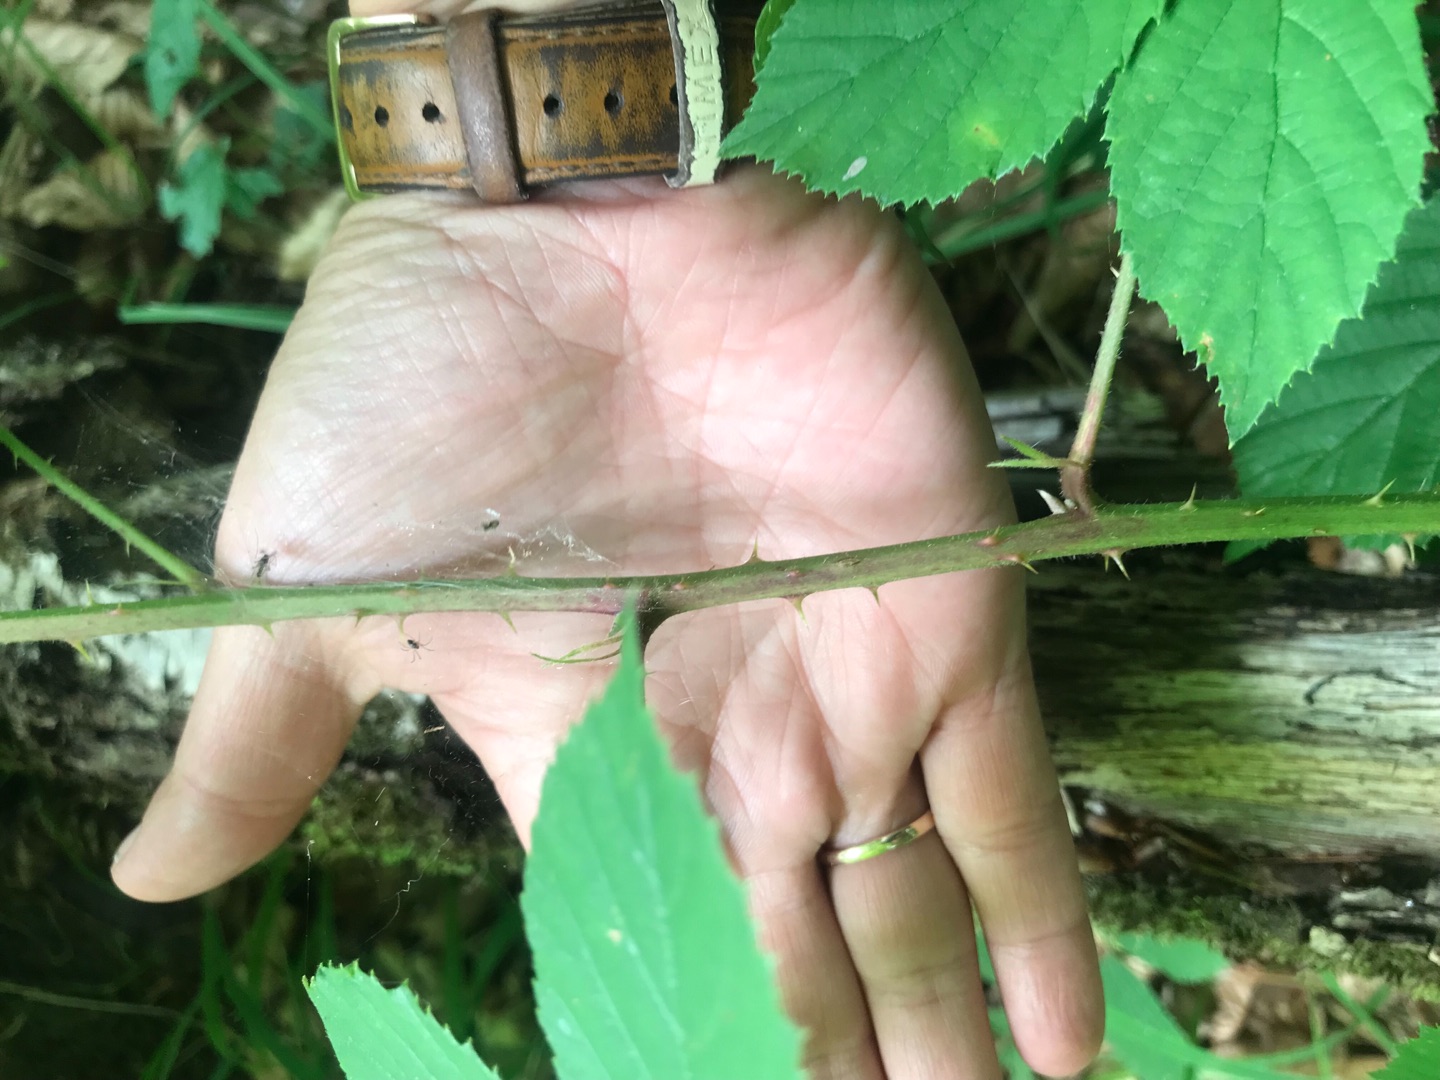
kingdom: Plantae
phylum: Tracheophyta
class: Magnoliopsida
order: Rosales
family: Rosaceae
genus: Rubus
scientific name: Rubus radula
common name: Rasperu brombær
